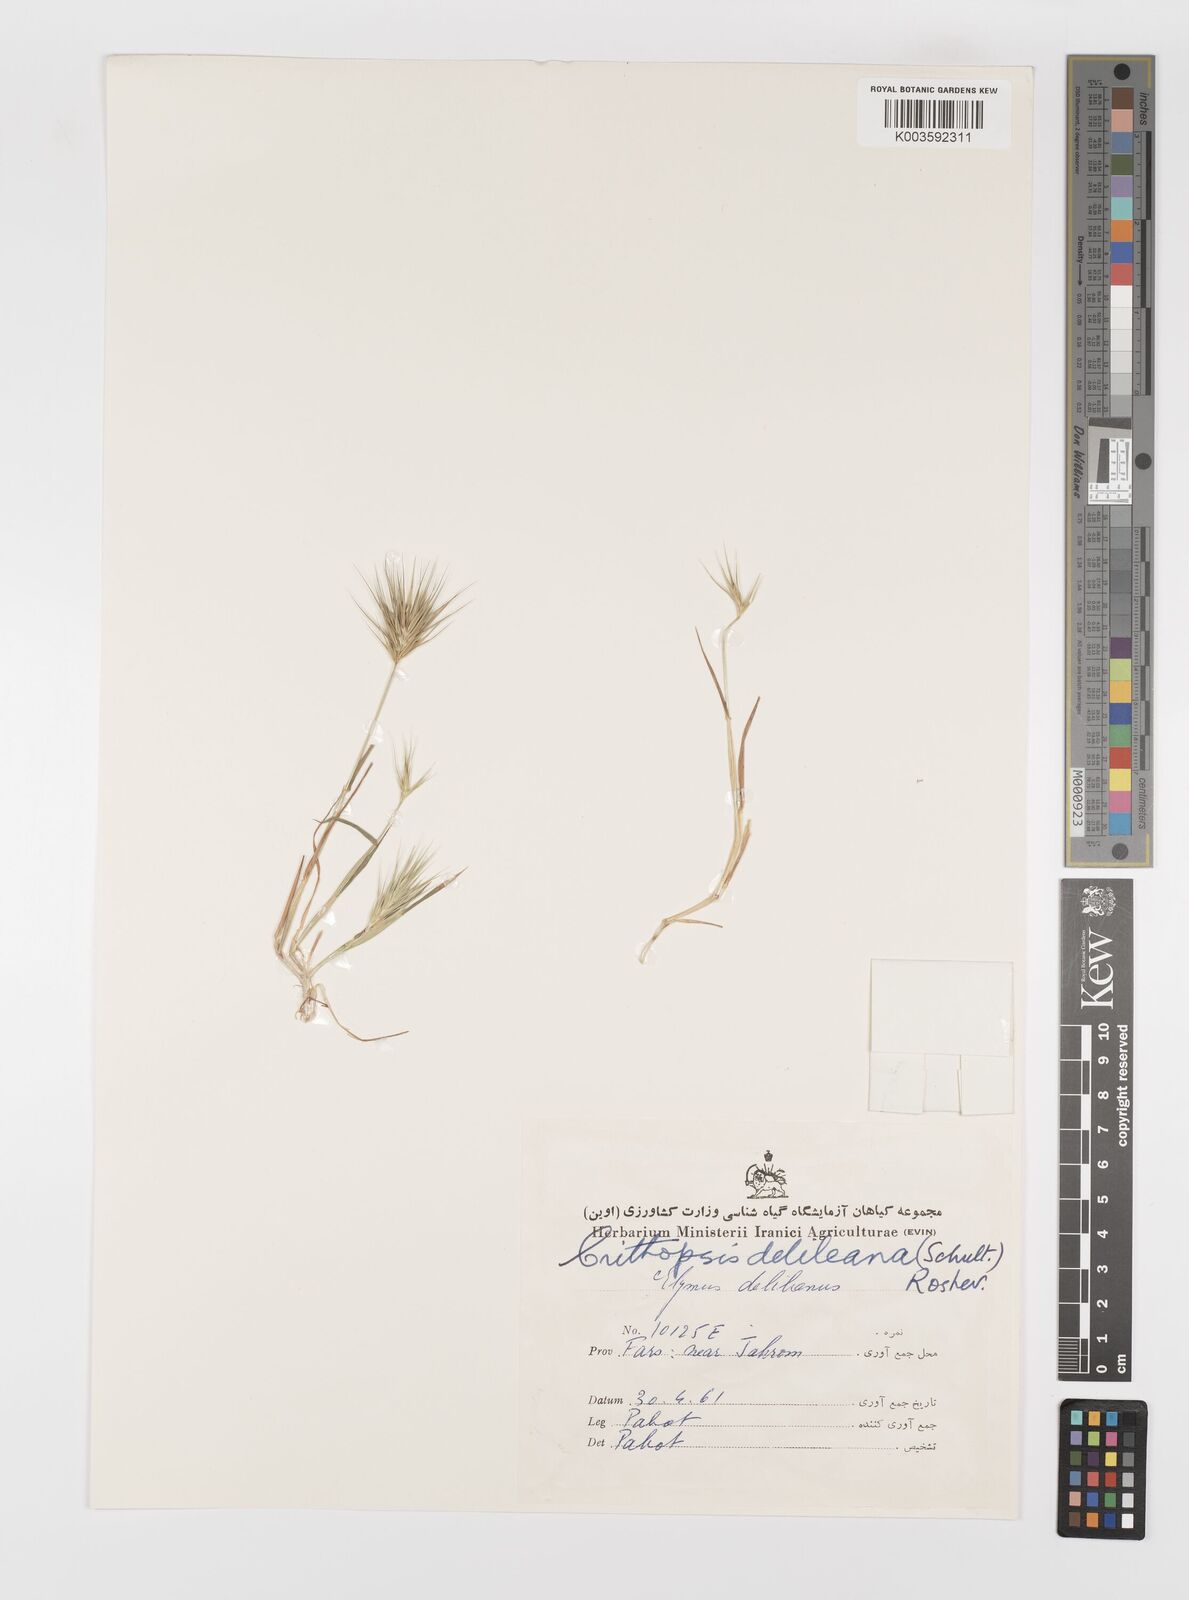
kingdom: Plantae
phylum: Tracheophyta
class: Liliopsida
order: Poales
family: Poaceae
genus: Crithopsis
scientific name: Crithopsis delileana
